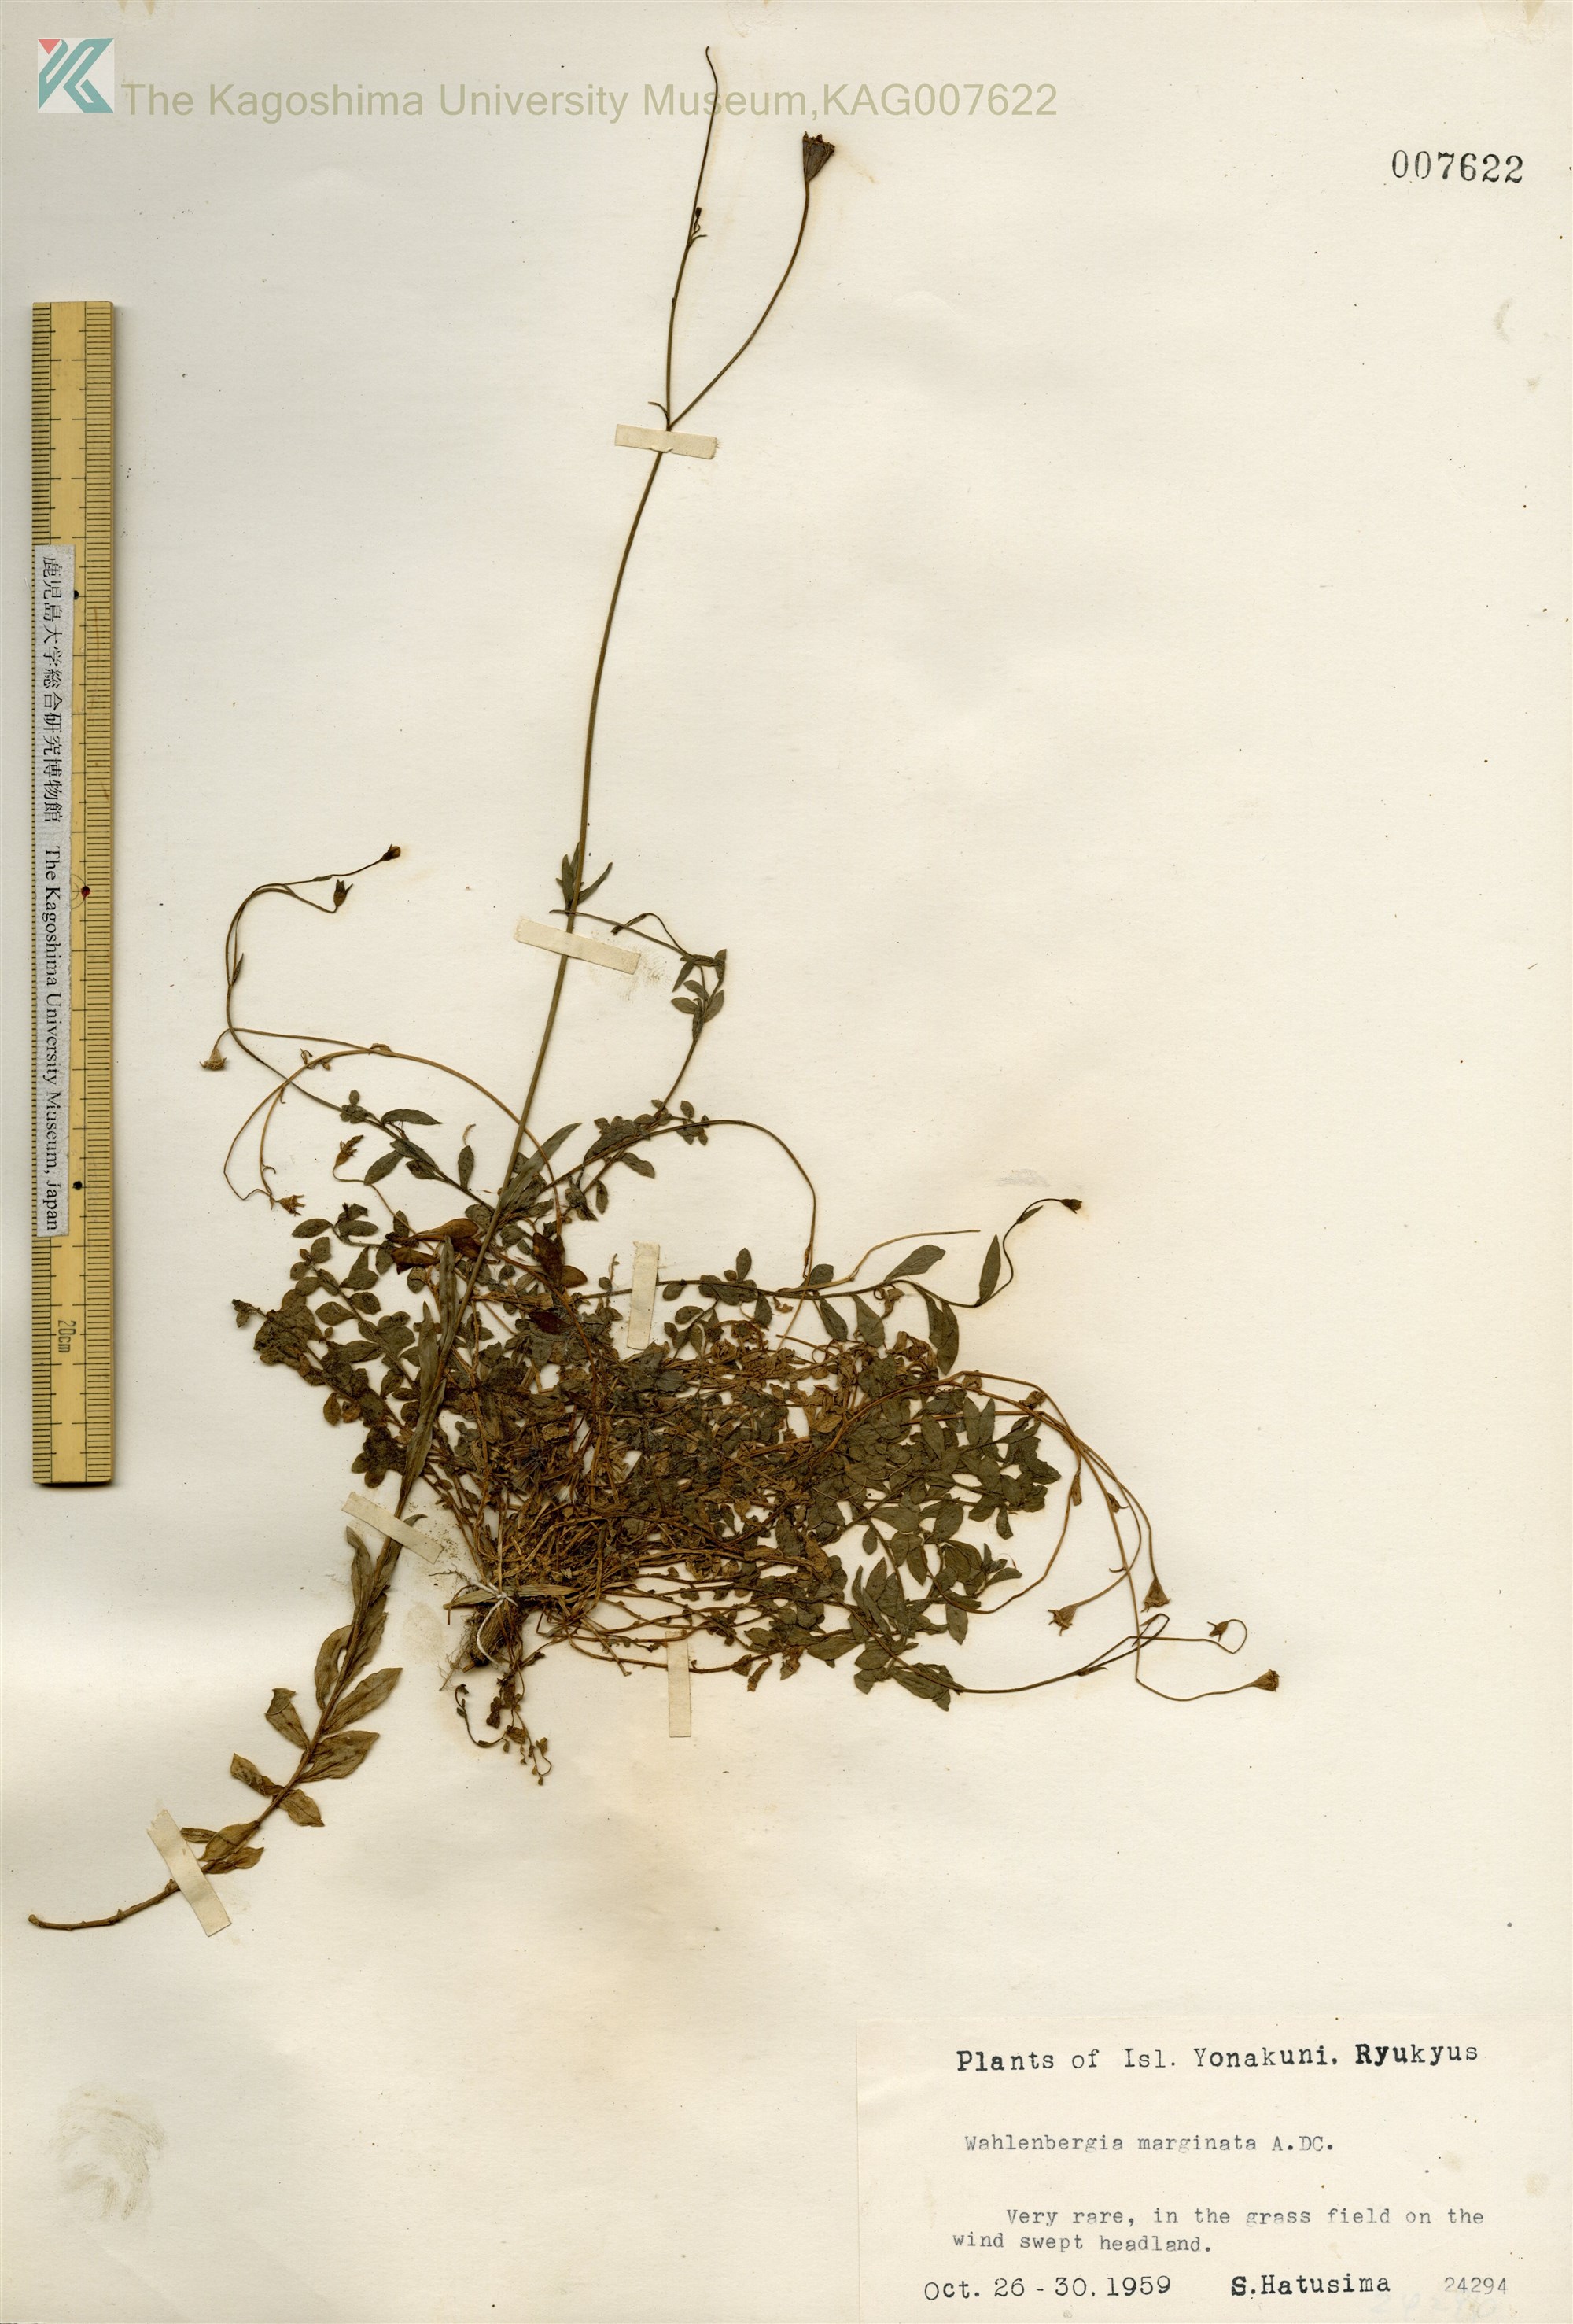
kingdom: Plantae
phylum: Tracheophyta
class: Magnoliopsida
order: Asterales
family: Campanulaceae
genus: Wahlenbergia
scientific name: Wahlenbergia marginata
